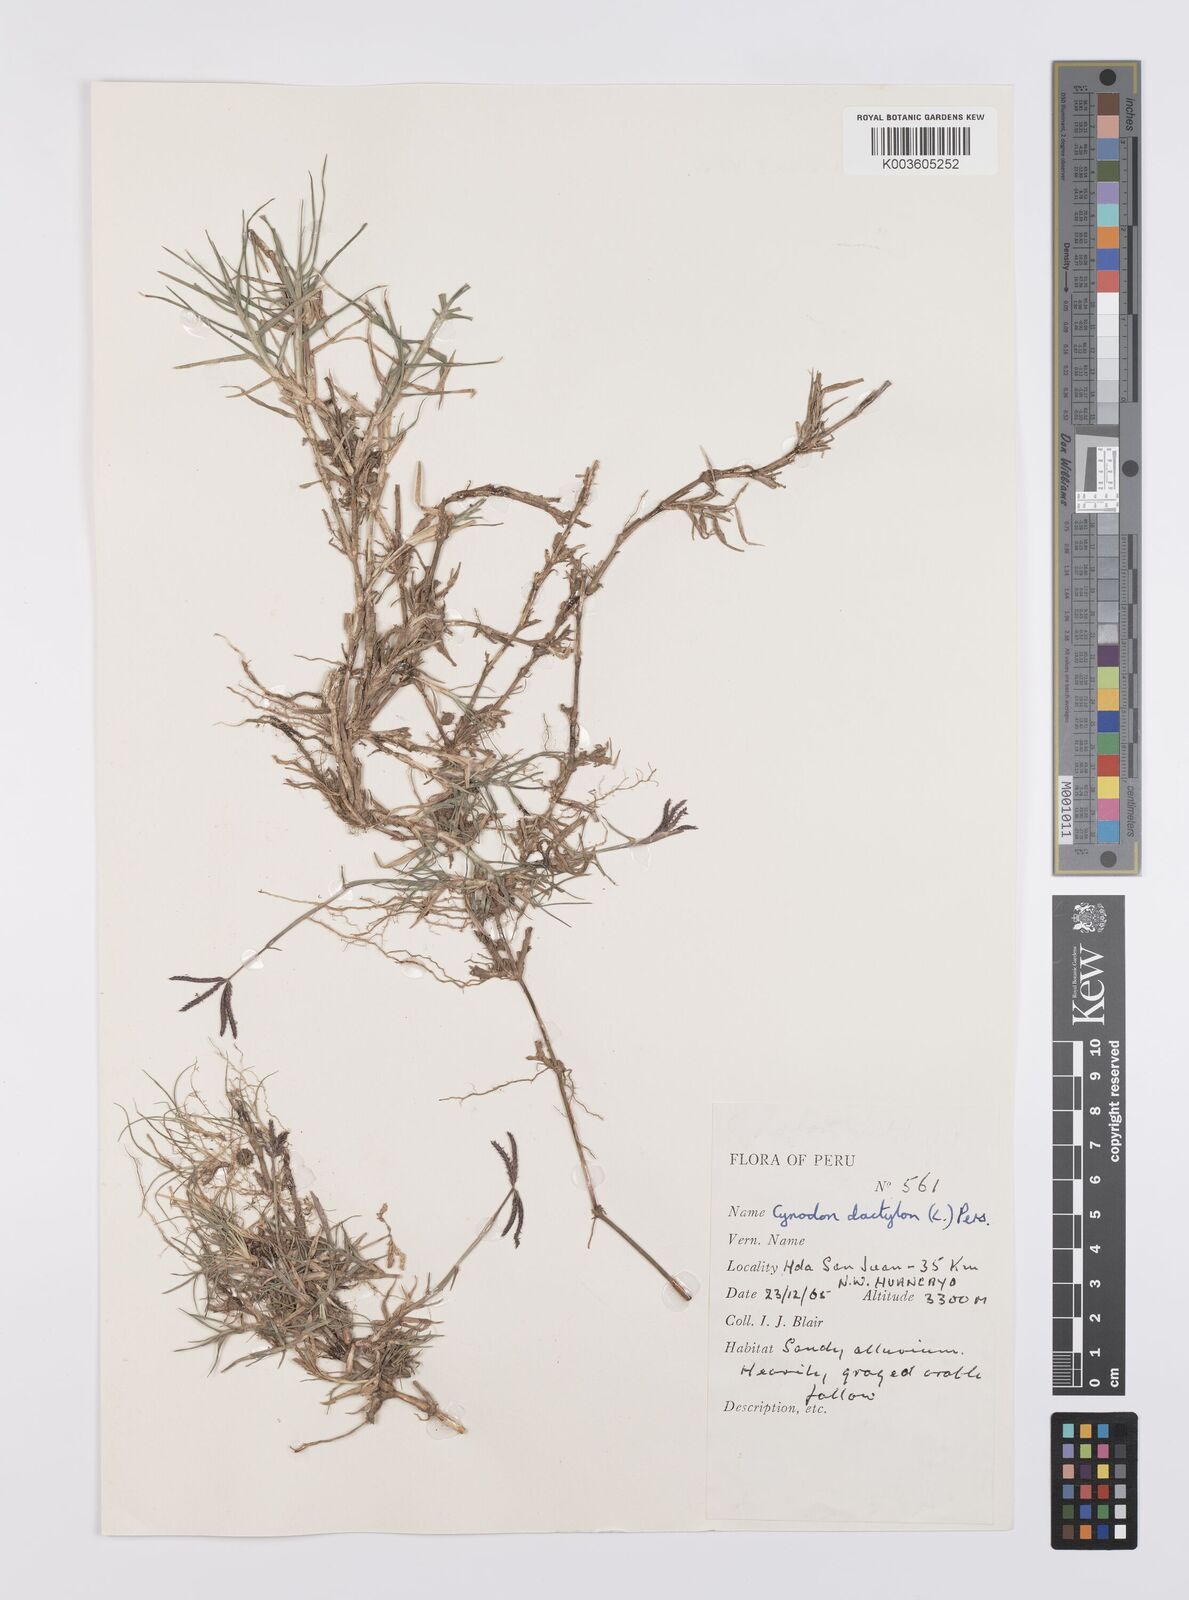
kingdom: Plantae
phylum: Tracheophyta
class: Liliopsida
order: Poales
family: Poaceae
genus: Cynodon
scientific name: Cynodon dactylon
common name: Bermuda grass
